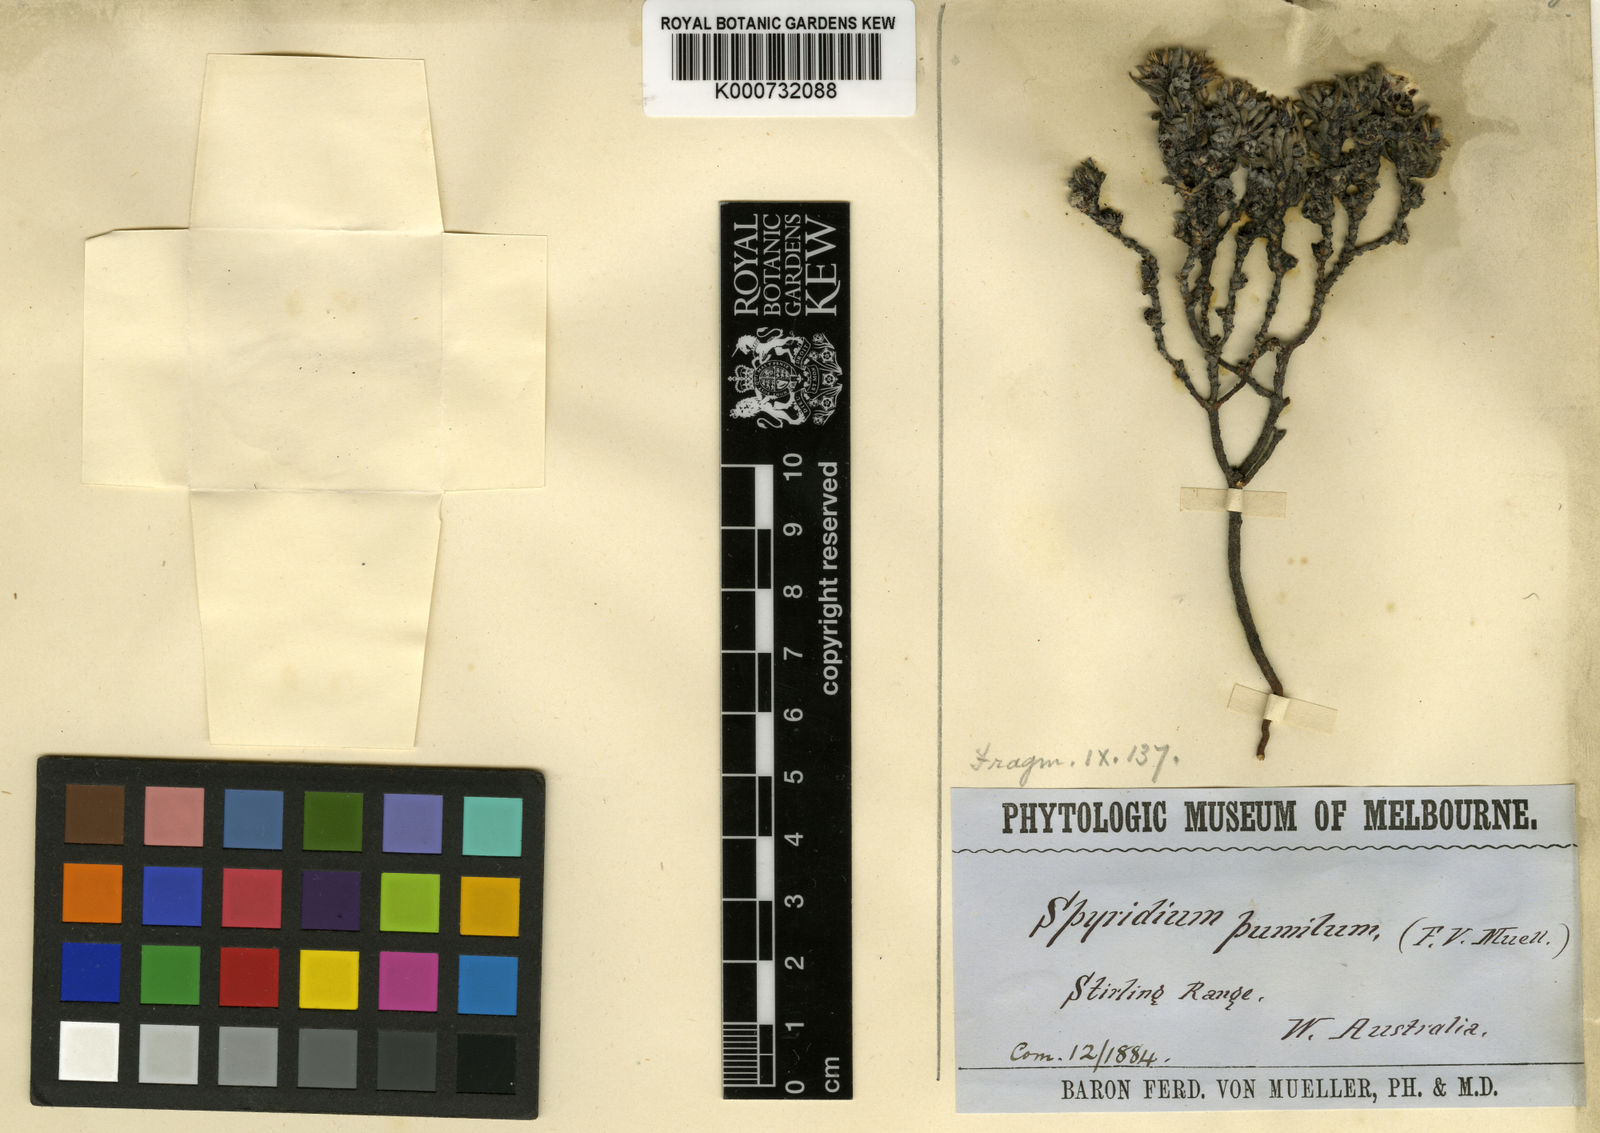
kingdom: Plantae
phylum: Tracheophyta
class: Magnoliopsida
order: Rosales
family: Rhamnaceae
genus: Stenanthemum
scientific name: Stenanthemum pumilum
